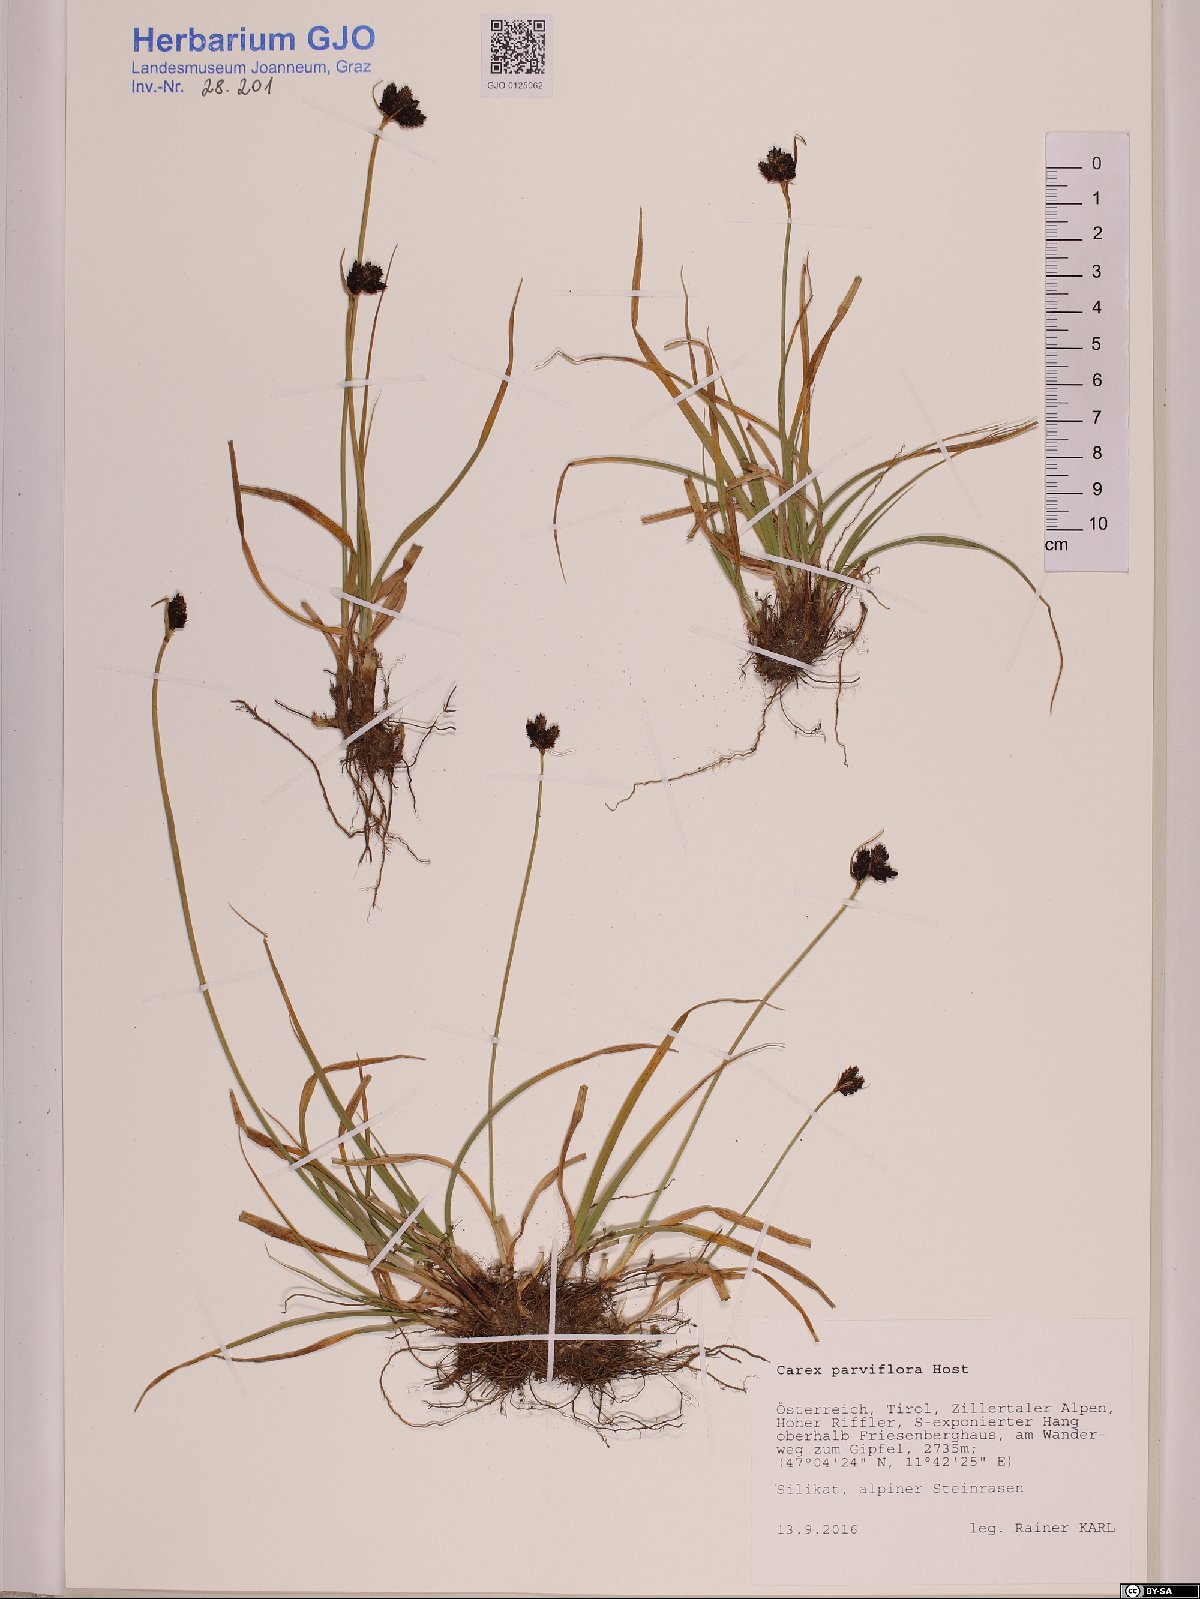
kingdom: Plantae
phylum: Tracheophyta
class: Liliopsida
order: Poales
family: Cyperaceae
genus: Carex
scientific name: Carex parviflora
